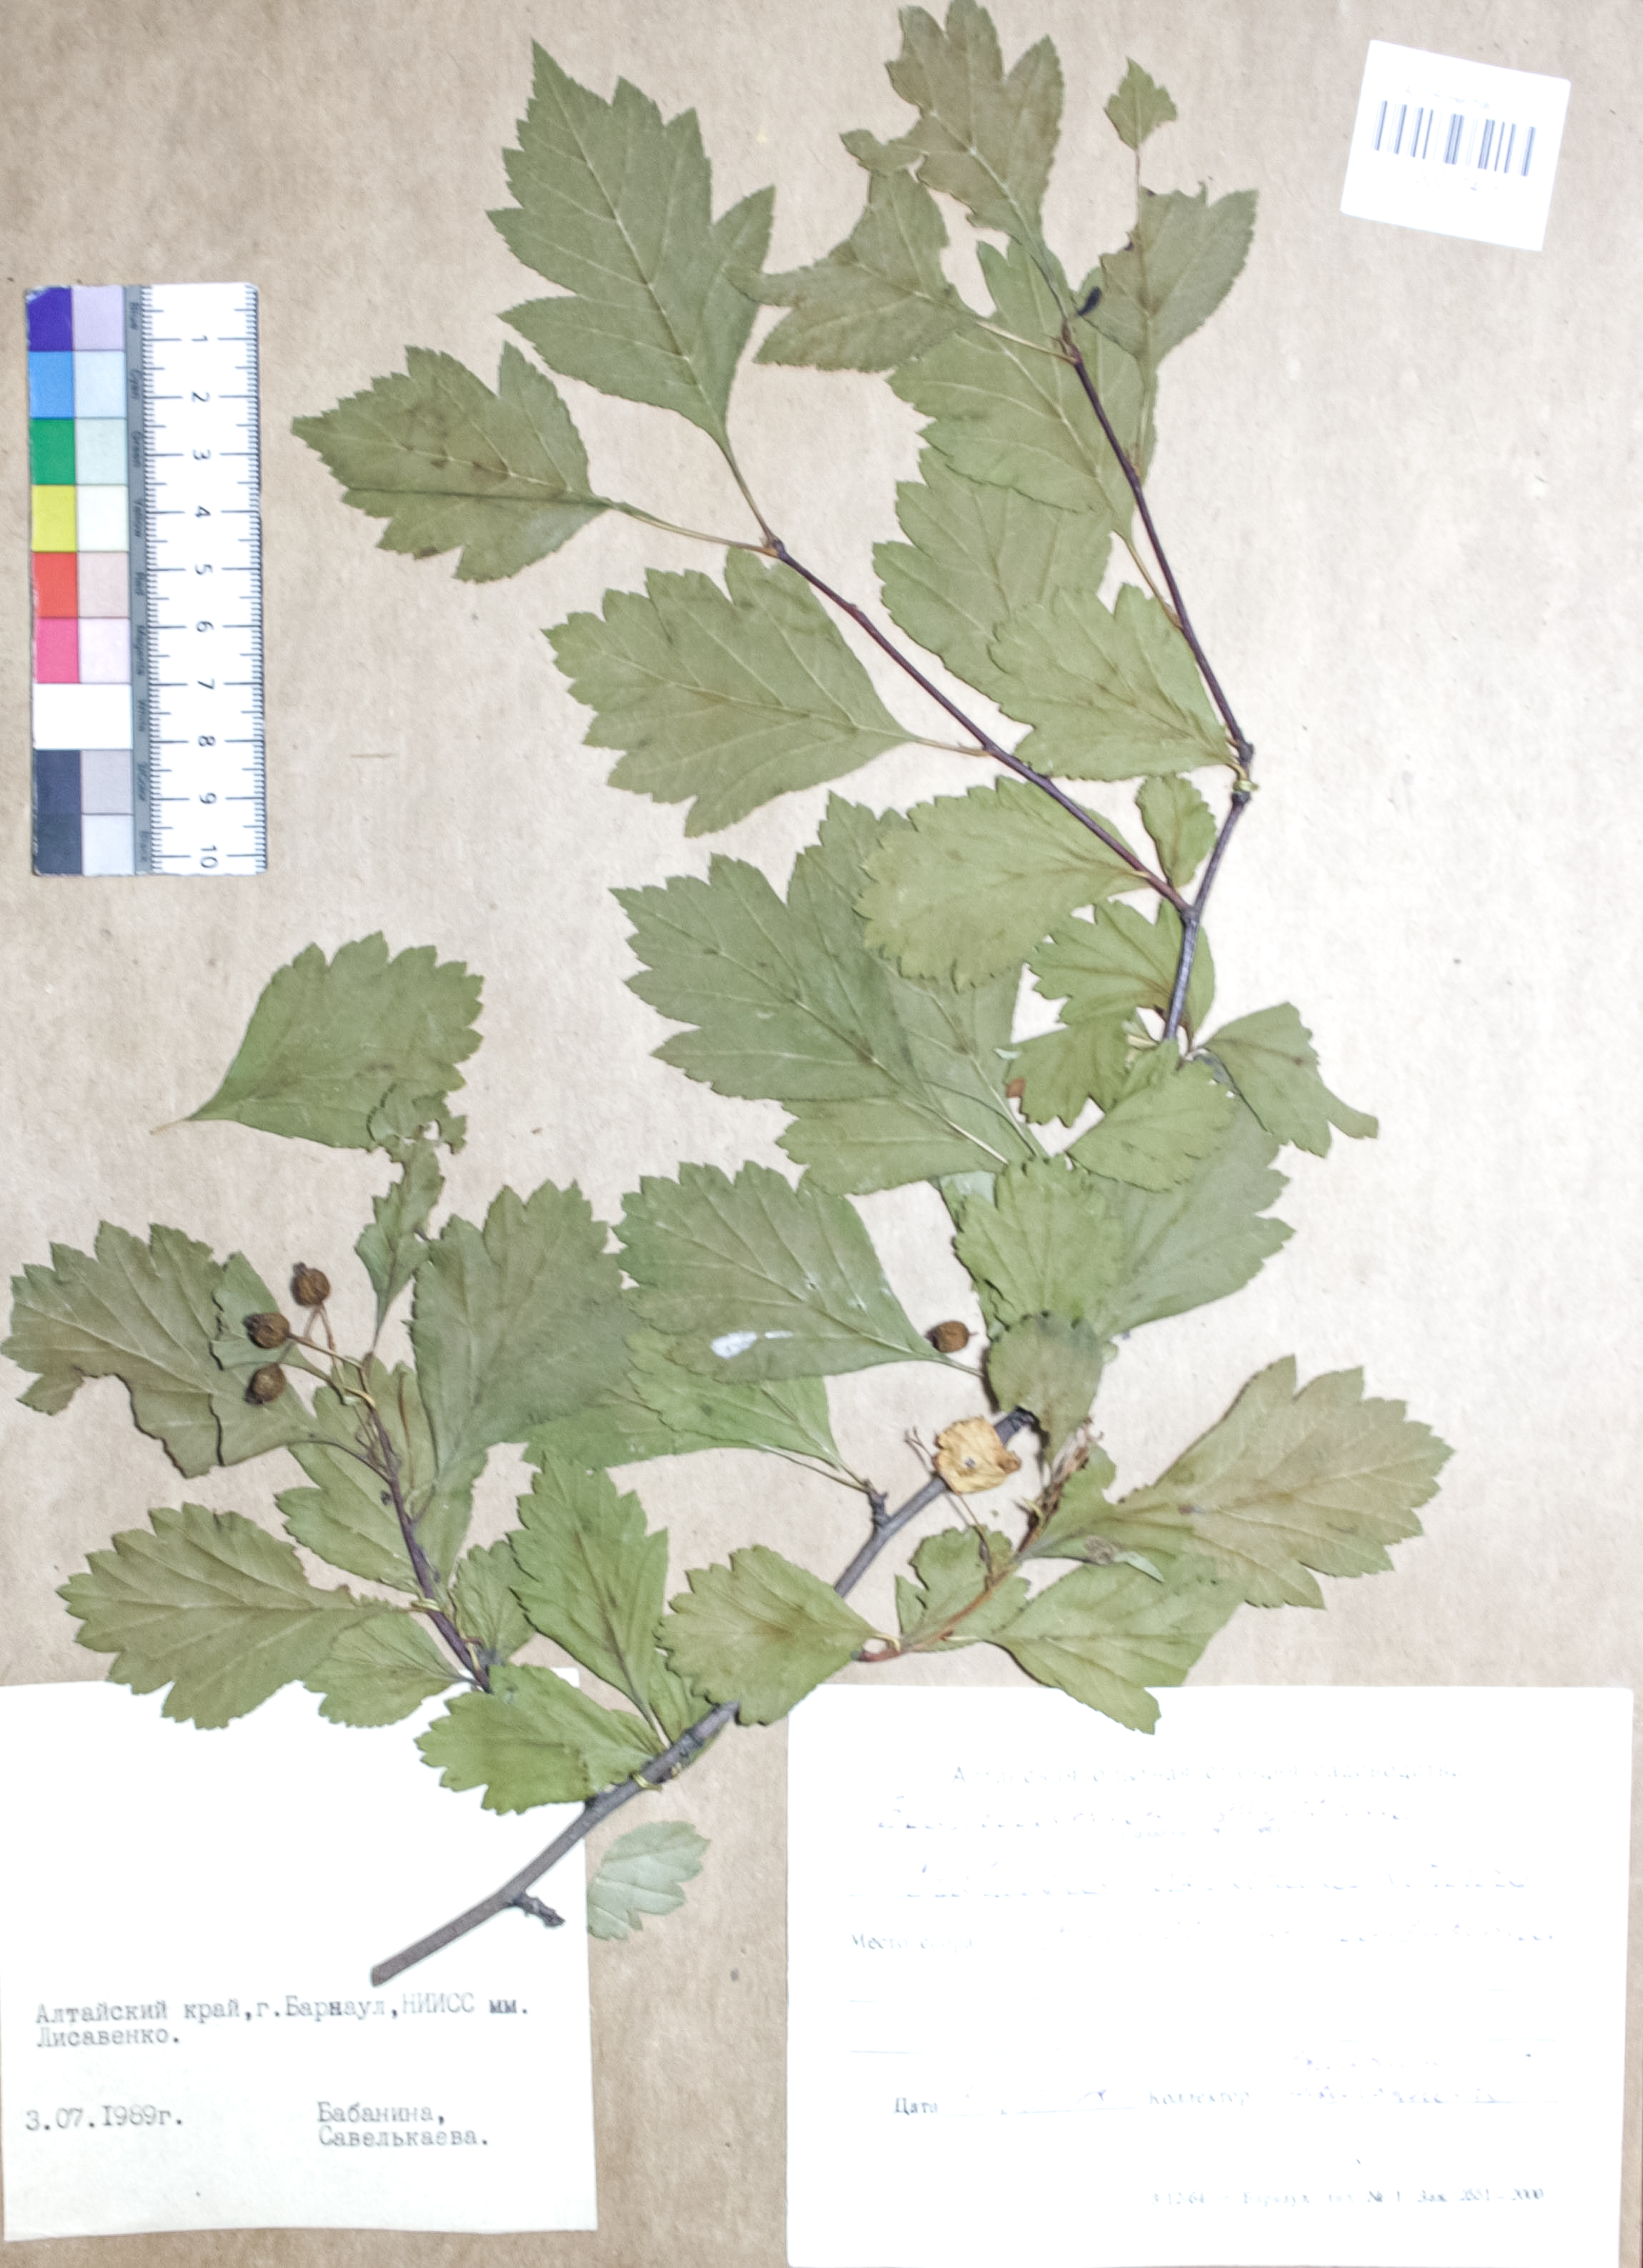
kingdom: Plantae
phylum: Tracheophyta
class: Magnoliopsida
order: Rosales
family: Rosaceae
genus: Crataegus
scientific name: Crataegus dahurica
